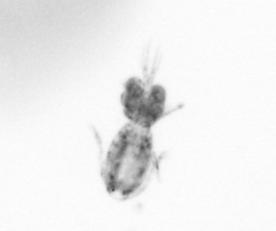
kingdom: Animalia
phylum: Arthropoda
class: Copepoda
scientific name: Copepoda
